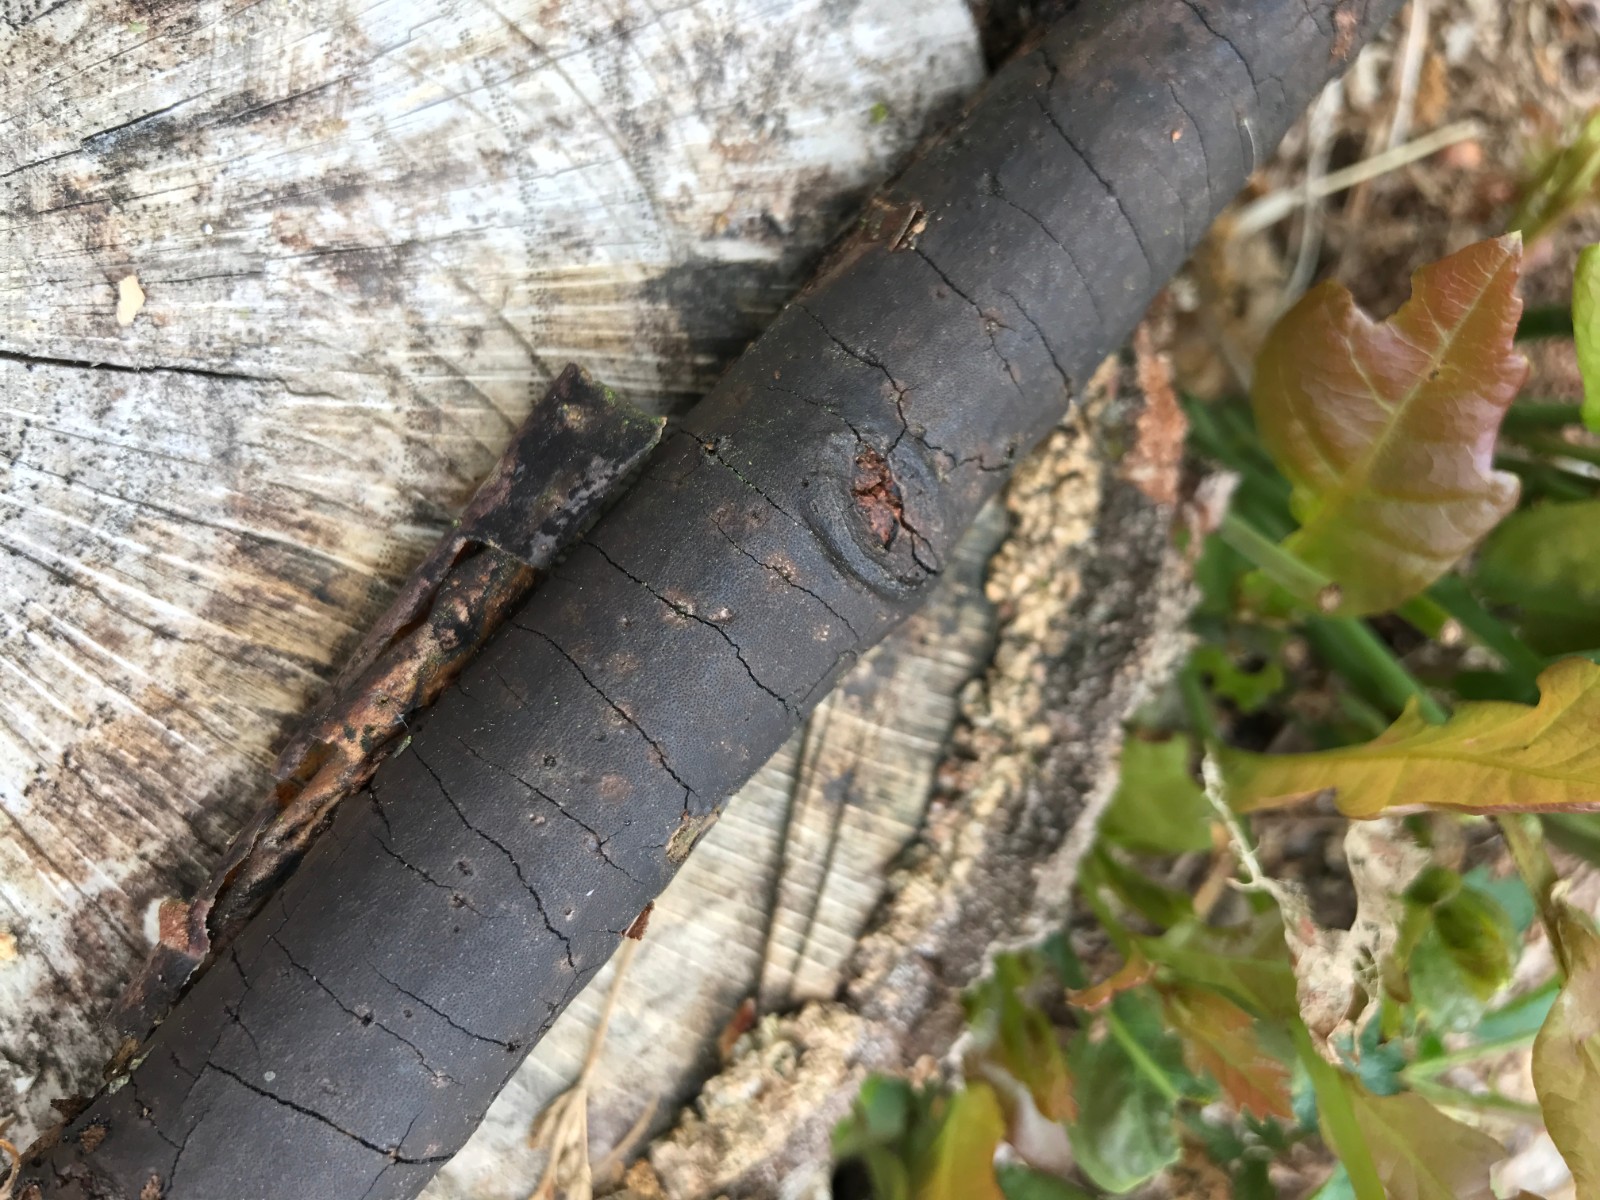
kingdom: Fungi
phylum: Ascomycota
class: Sordariomycetes
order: Xylariales
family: Diatrypaceae
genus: Diatrype
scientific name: Diatrype
